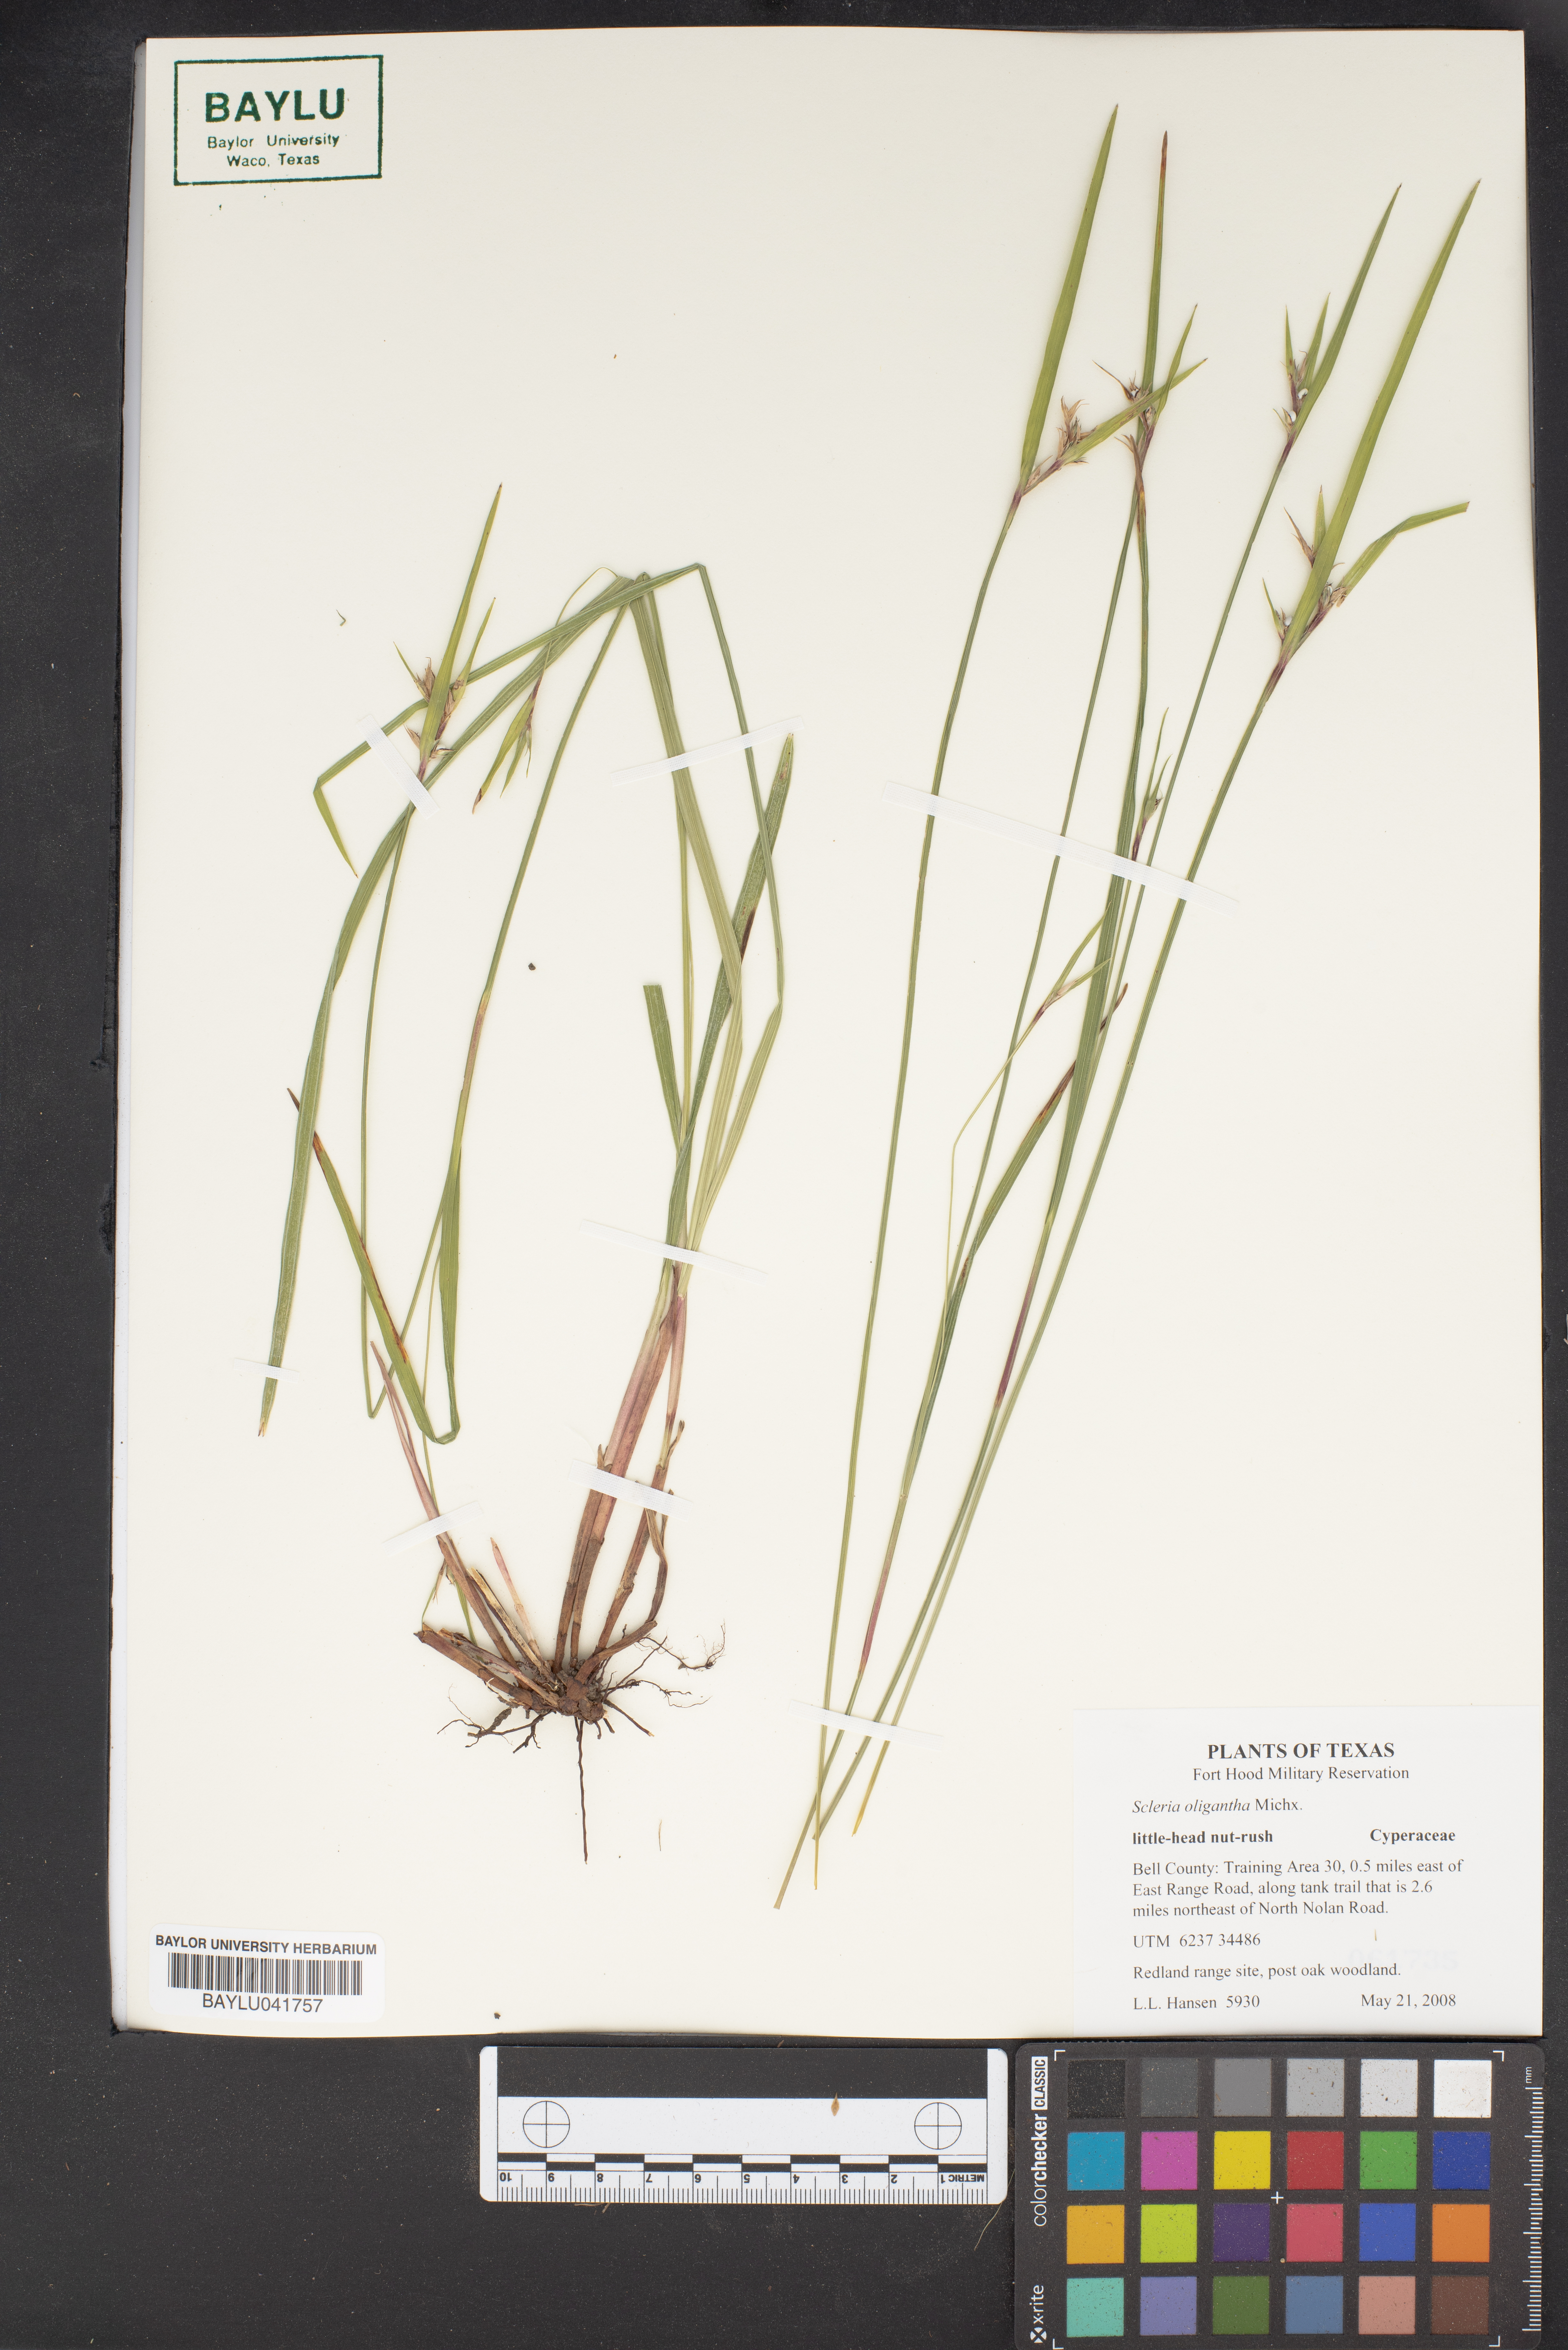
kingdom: Plantae
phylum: Tracheophyta
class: Liliopsida
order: Poales
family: Cyperaceae
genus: Scleria
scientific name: Scleria oligantha
